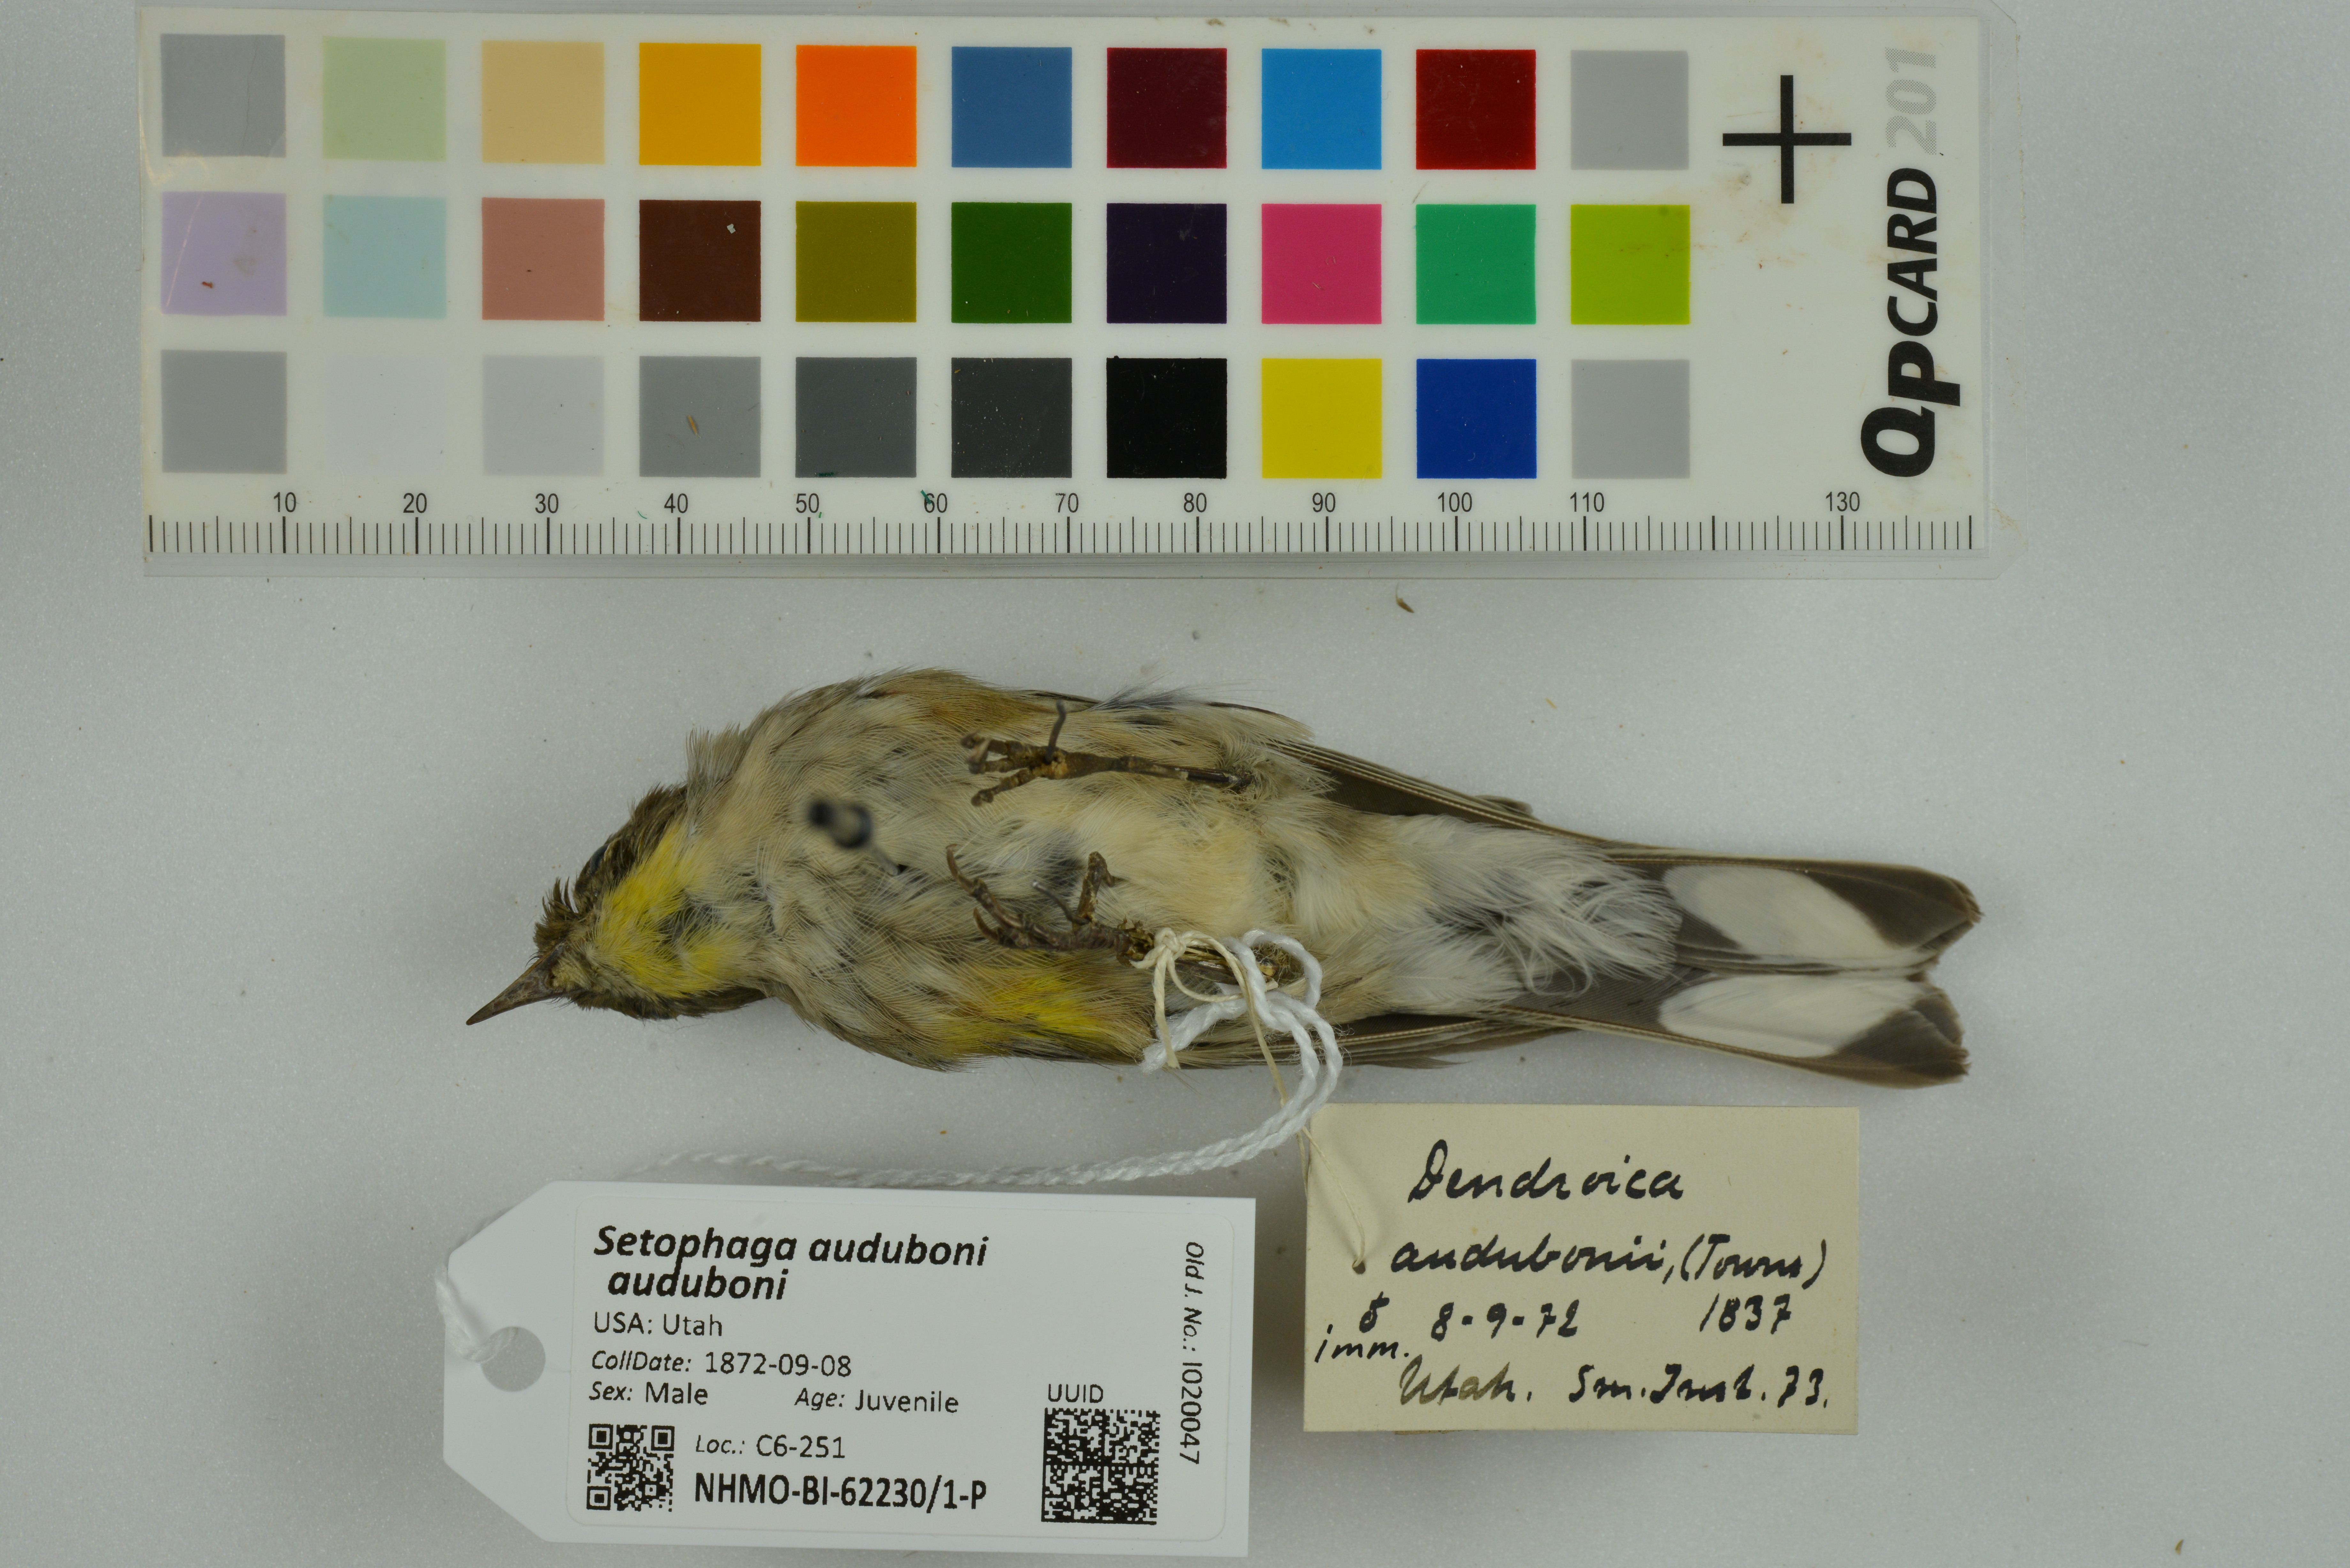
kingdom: Animalia
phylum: Chordata
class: Aves
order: Passeriformes
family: Parulidae
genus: Setophaga
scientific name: Setophaga auduboni
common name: Audubon's warbler
